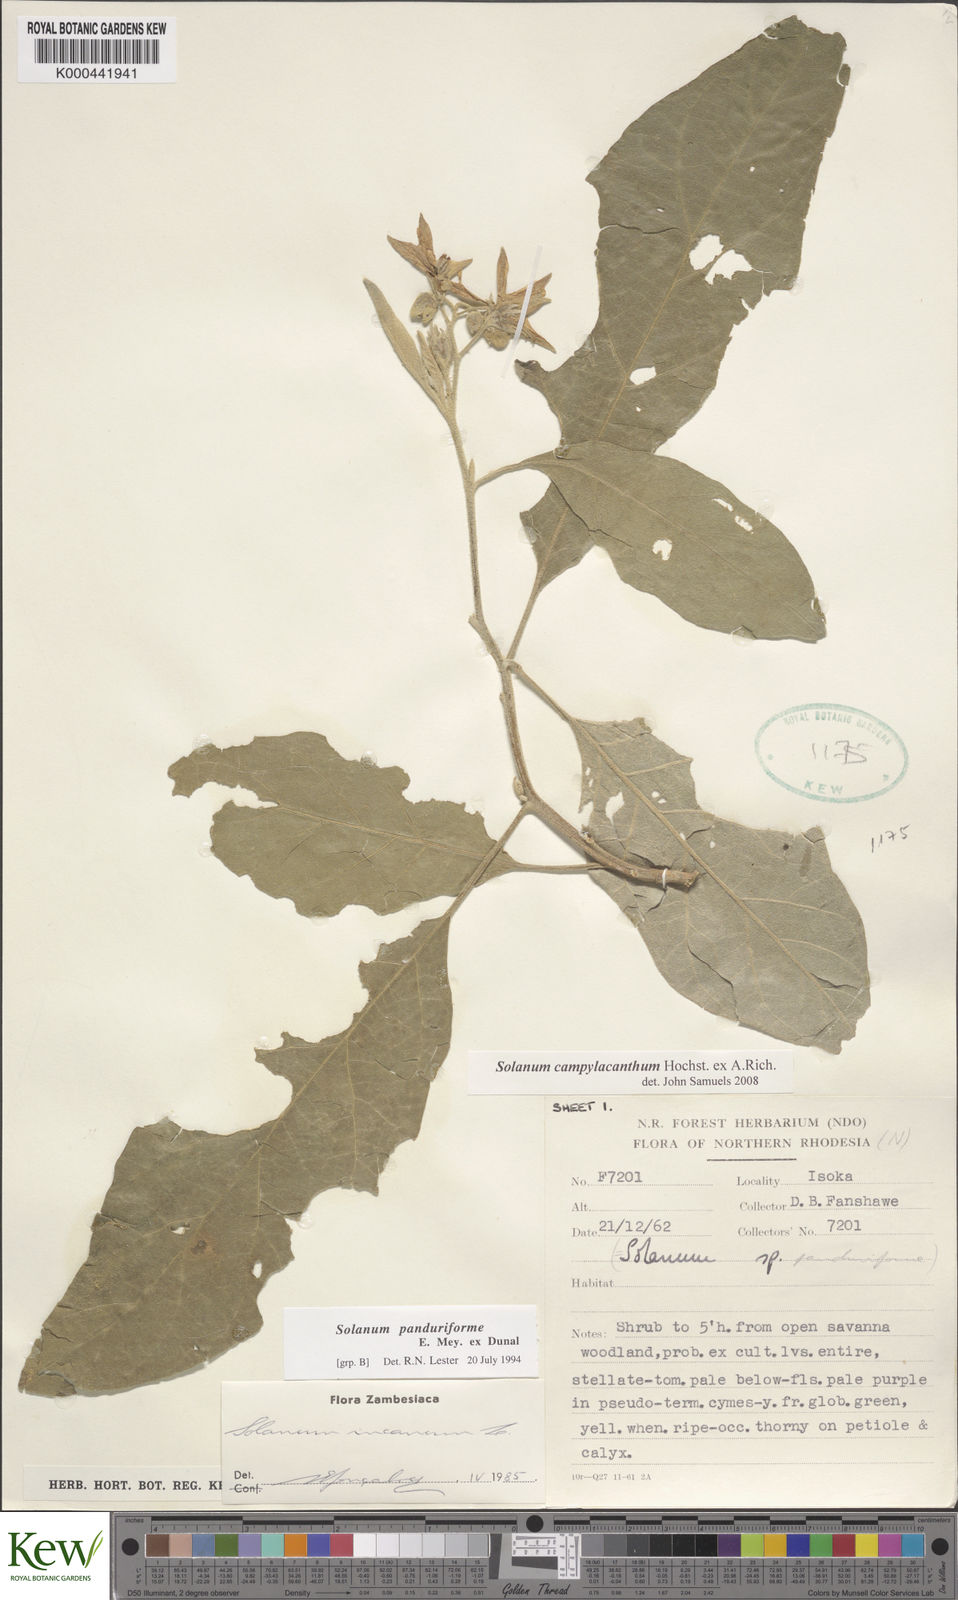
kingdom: Plantae
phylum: Tracheophyta
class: Magnoliopsida
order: Solanales
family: Solanaceae
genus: Solanum
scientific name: Solanum campylacanthum
